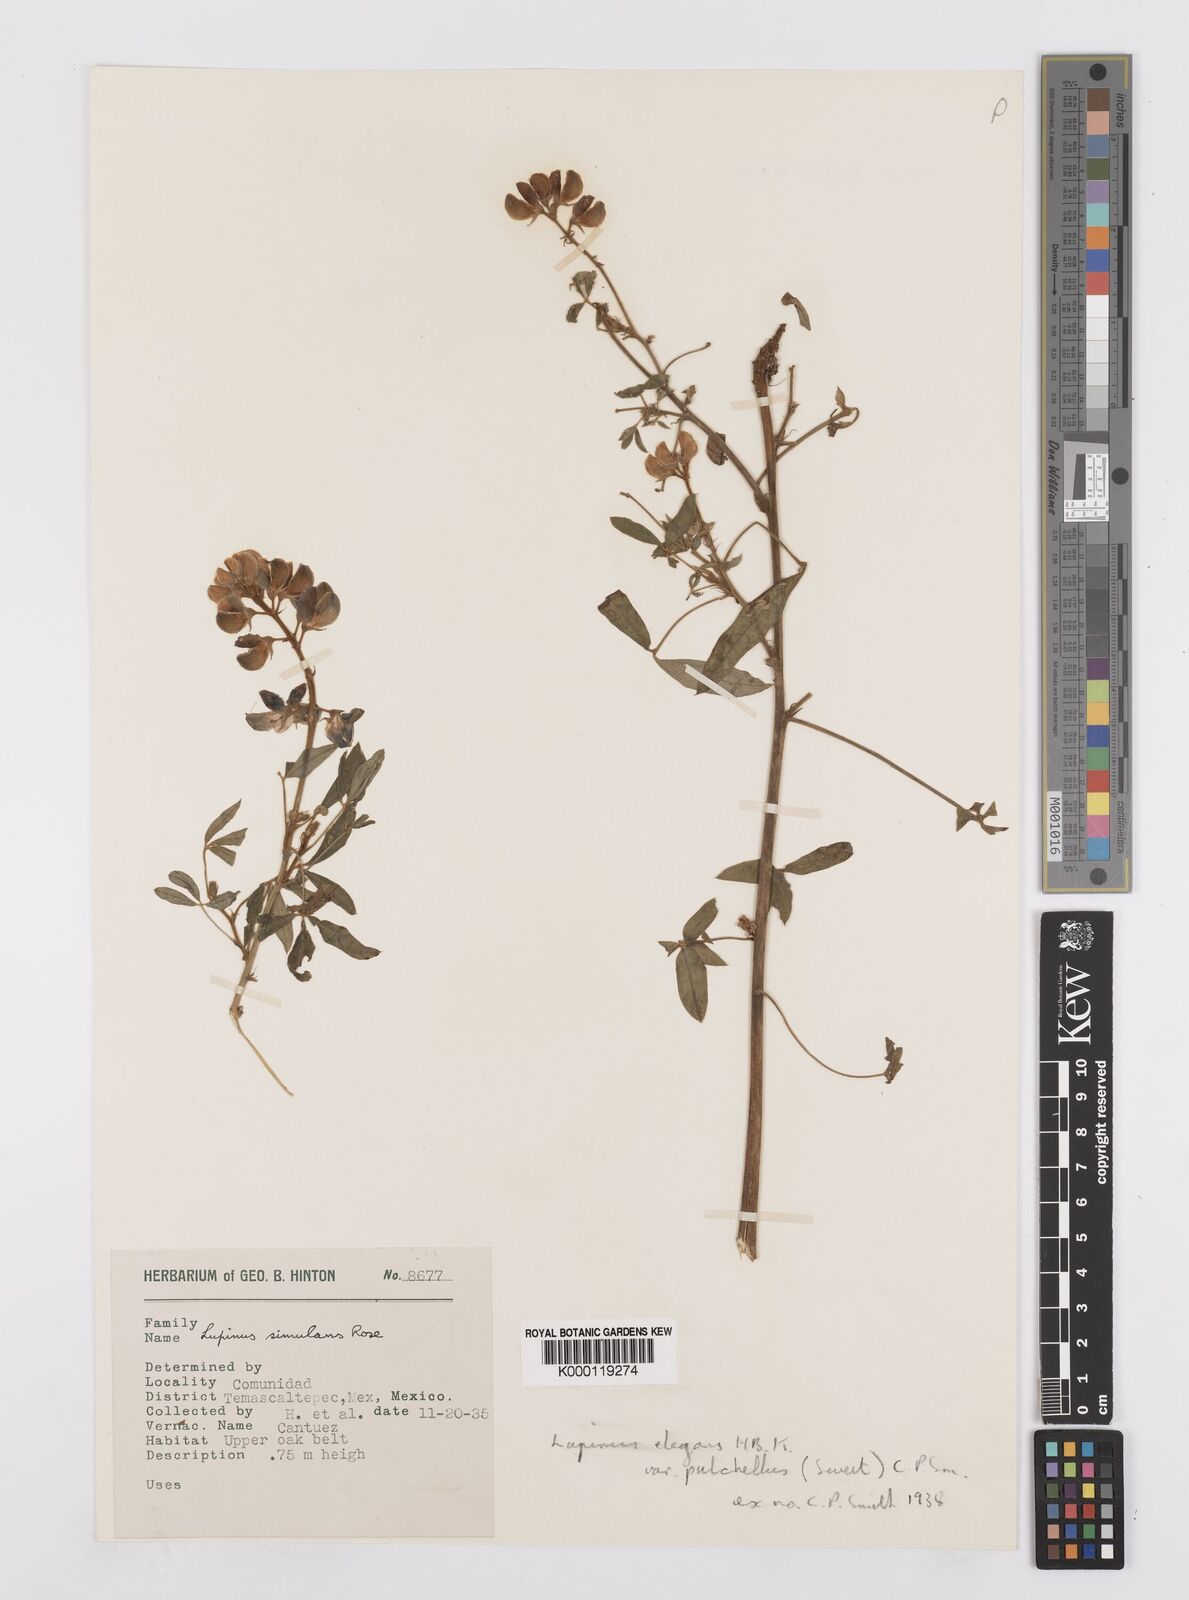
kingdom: Plantae
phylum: Tracheophyta
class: Magnoliopsida
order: Fabales
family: Fabaceae
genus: Lupinus
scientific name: Lupinus elegans
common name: Mexican lupine
